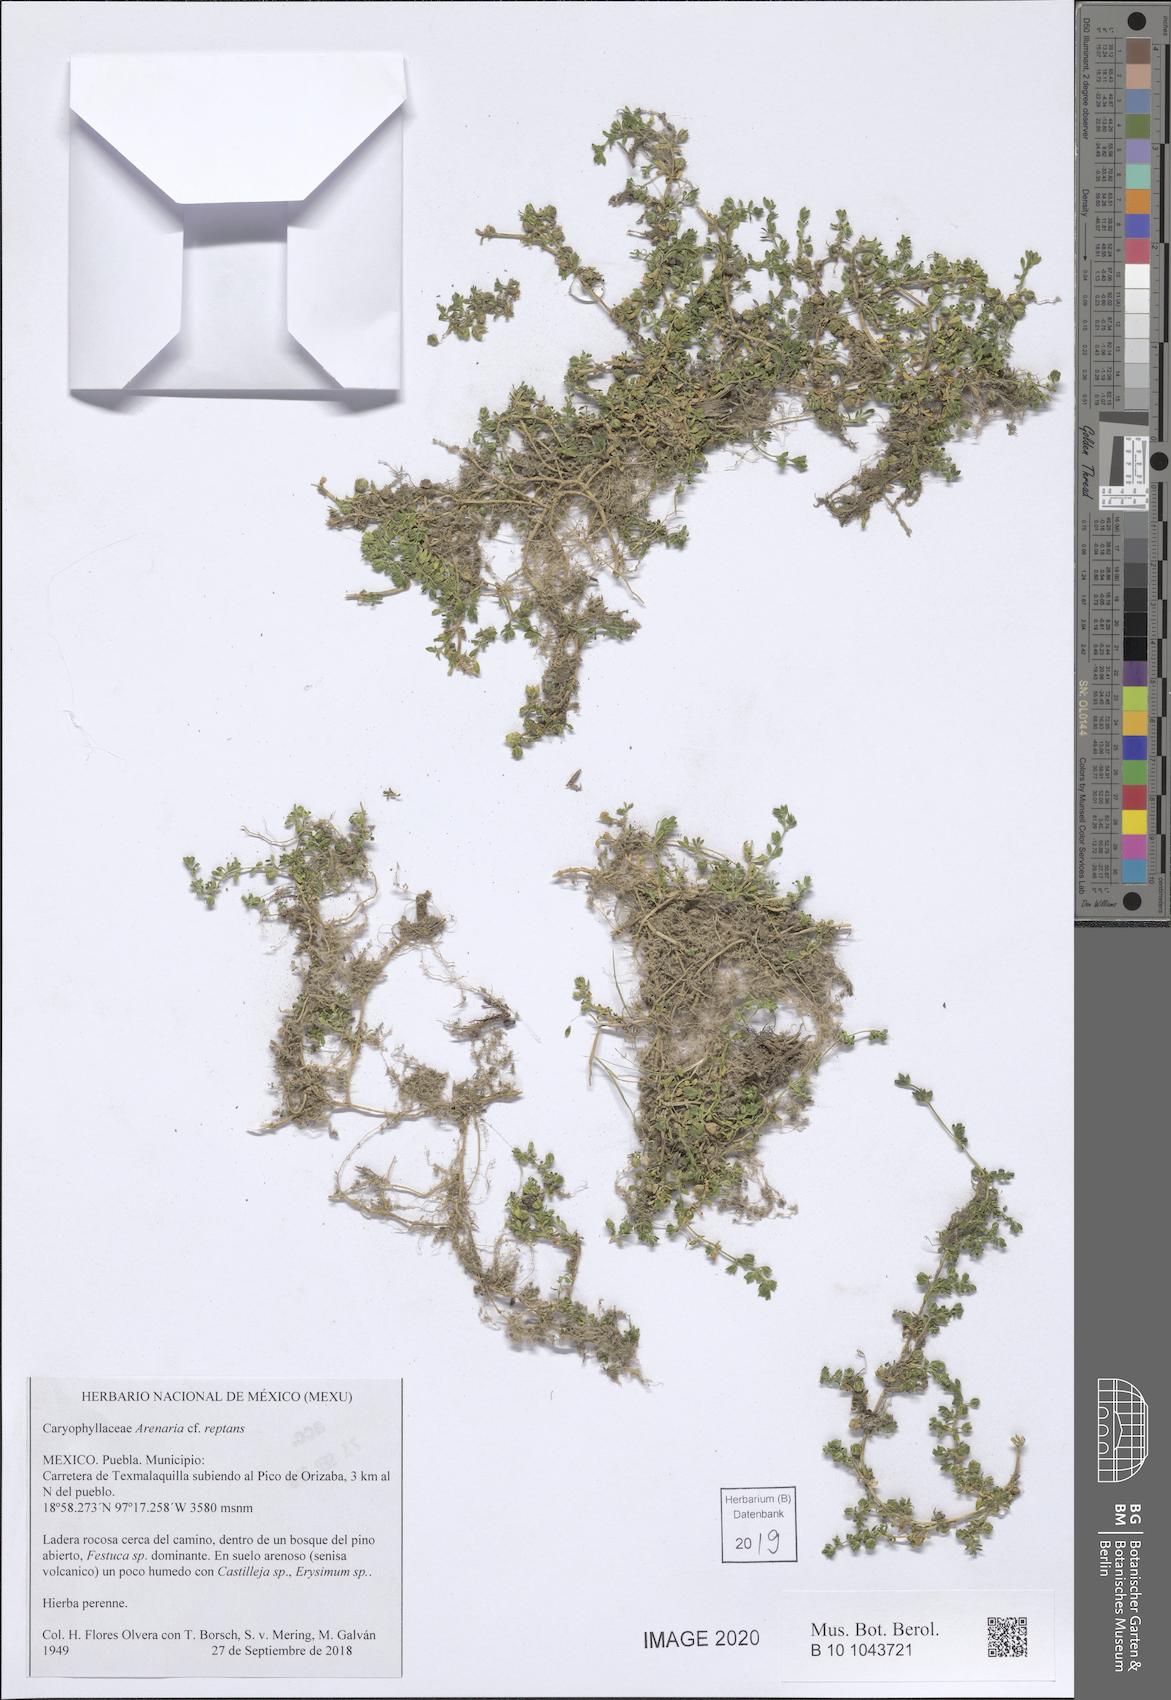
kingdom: Plantae
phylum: Tracheophyta
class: Magnoliopsida
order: Caryophyllales
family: Caryophyllaceae
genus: Arenaria
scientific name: Arenaria reptans
